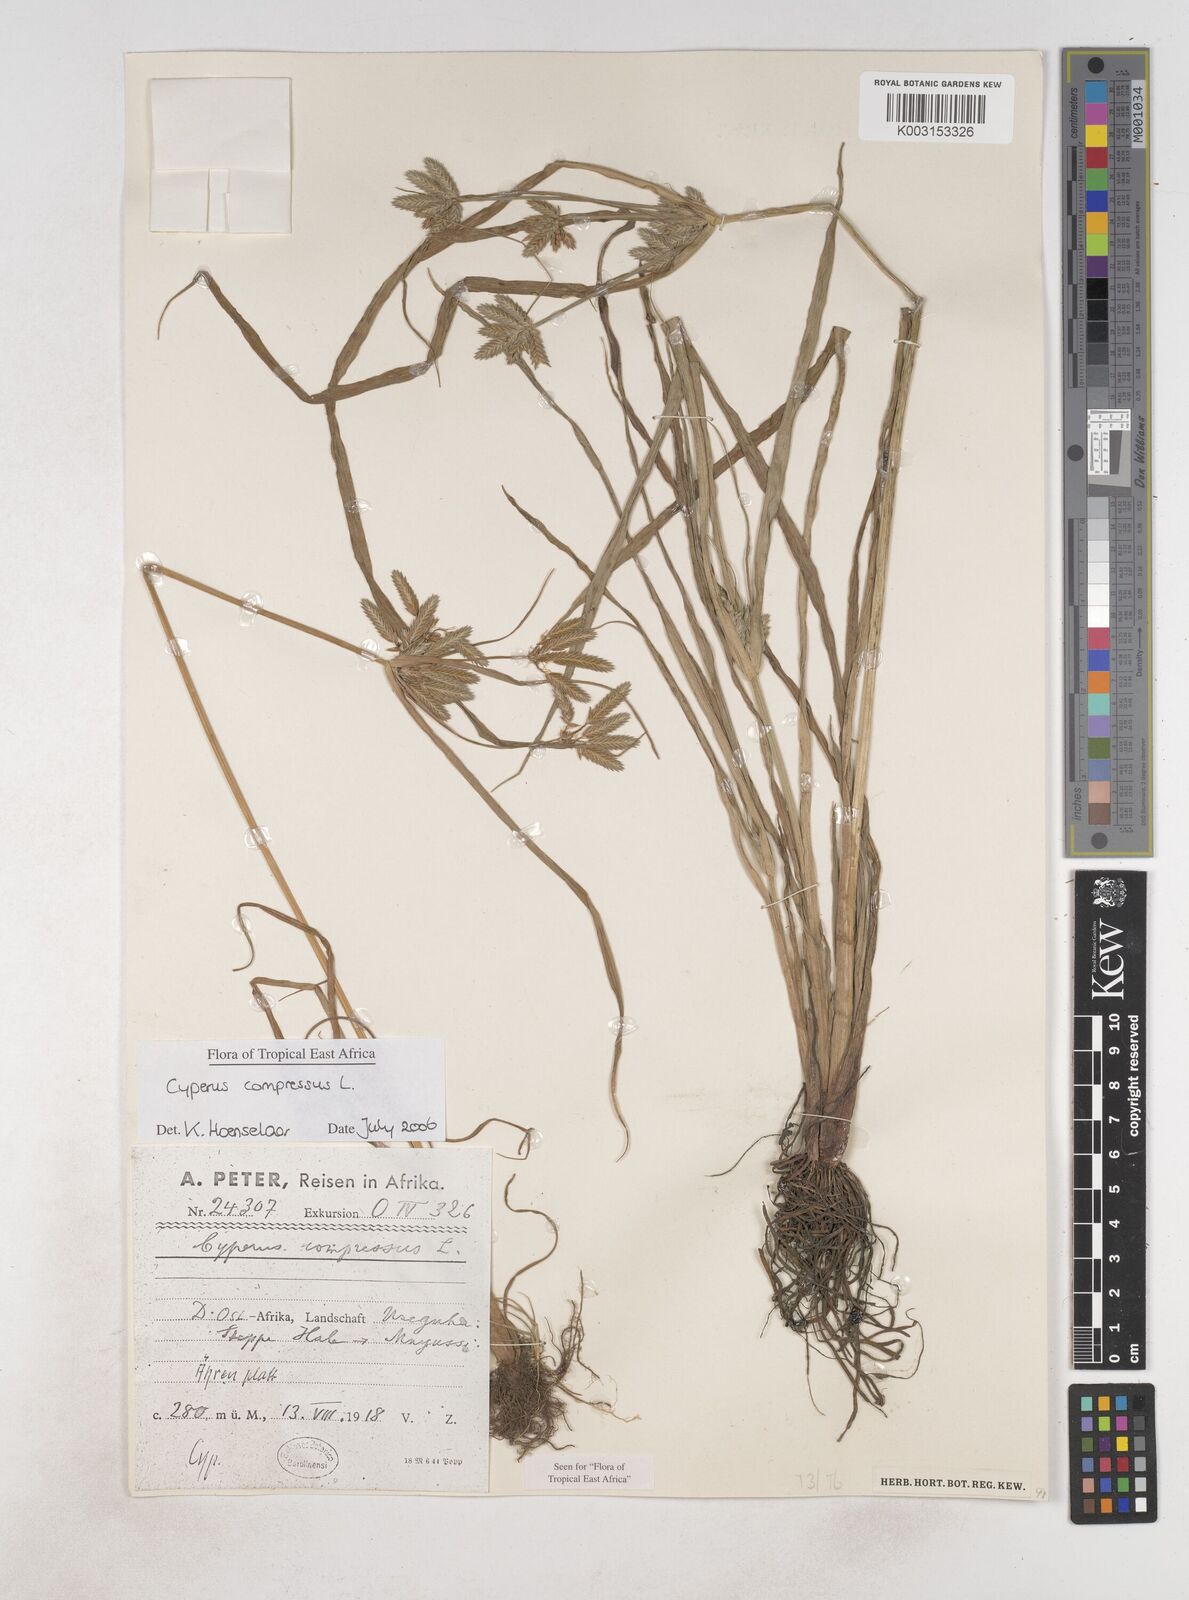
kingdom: Plantae
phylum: Tracheophyta
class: Liliopsida
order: Poales
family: Cyperaceae
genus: Cyperus
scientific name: Cyperus compressus
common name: Poorland flatsedge
